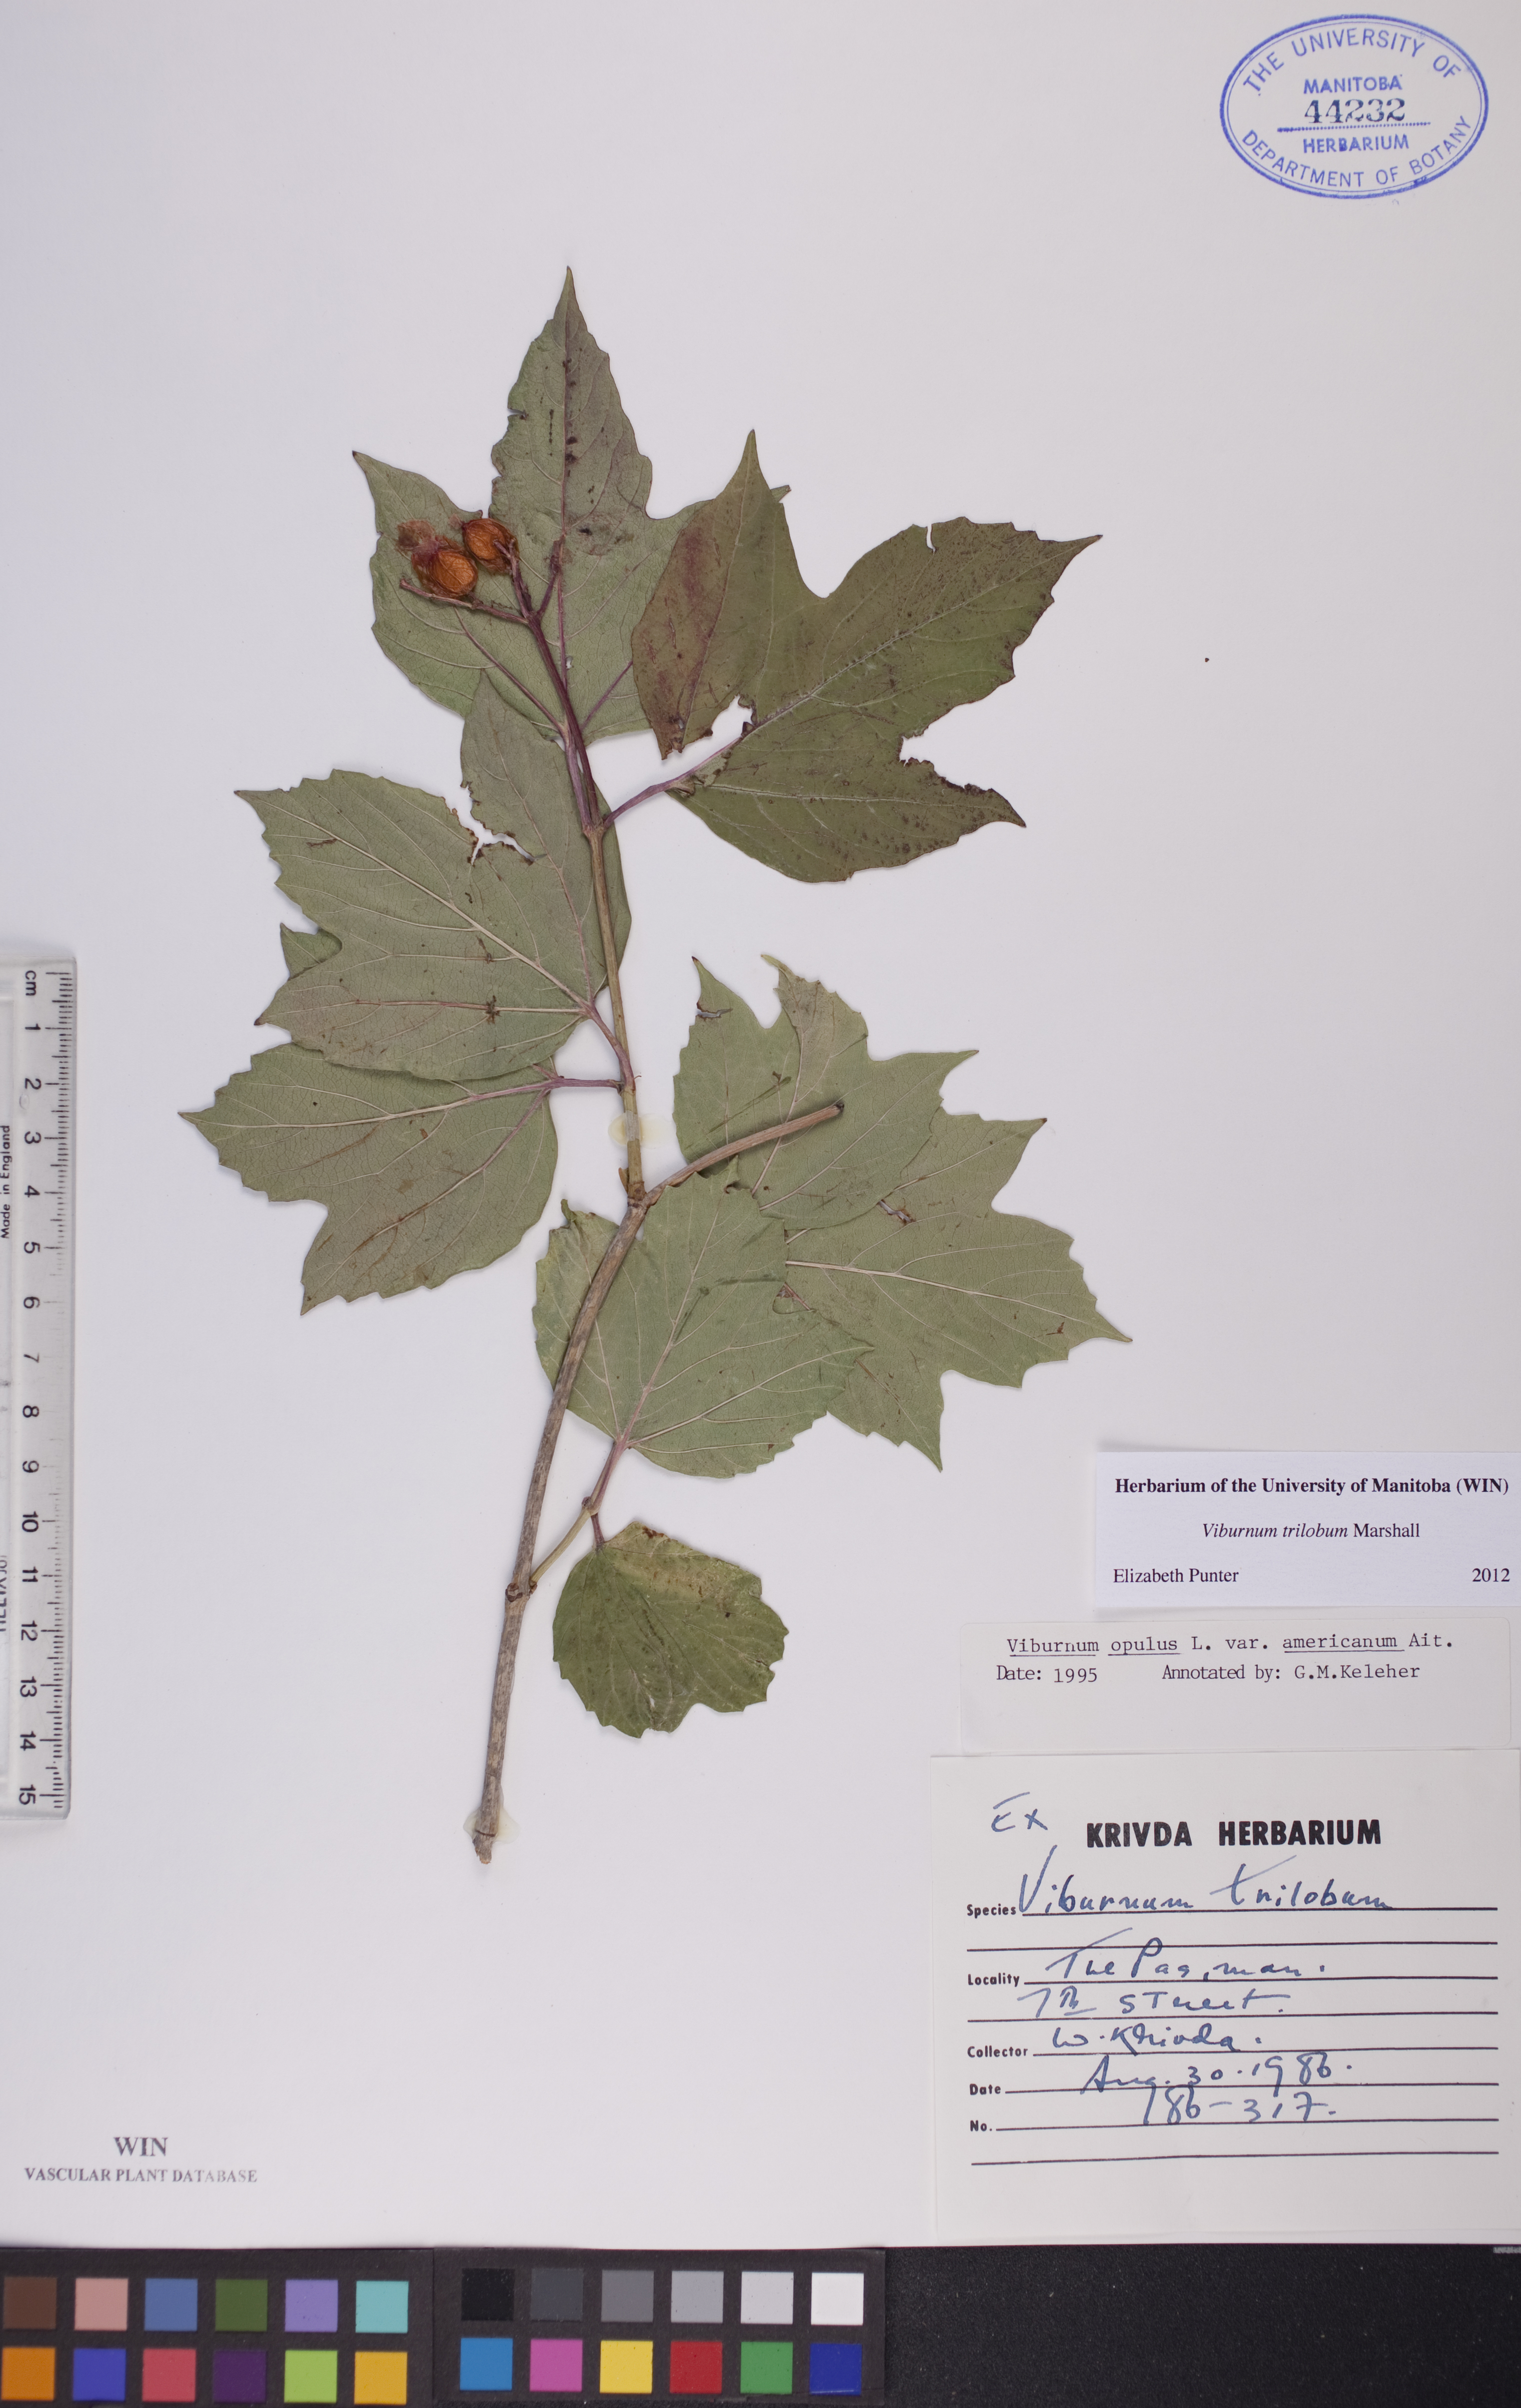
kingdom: Plantae
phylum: Tracheophyta
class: Magnoliopsida
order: Dipsacales
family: Viburnaceae
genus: Viburnum
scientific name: Viburnum trilobum
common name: American cranberrybush
